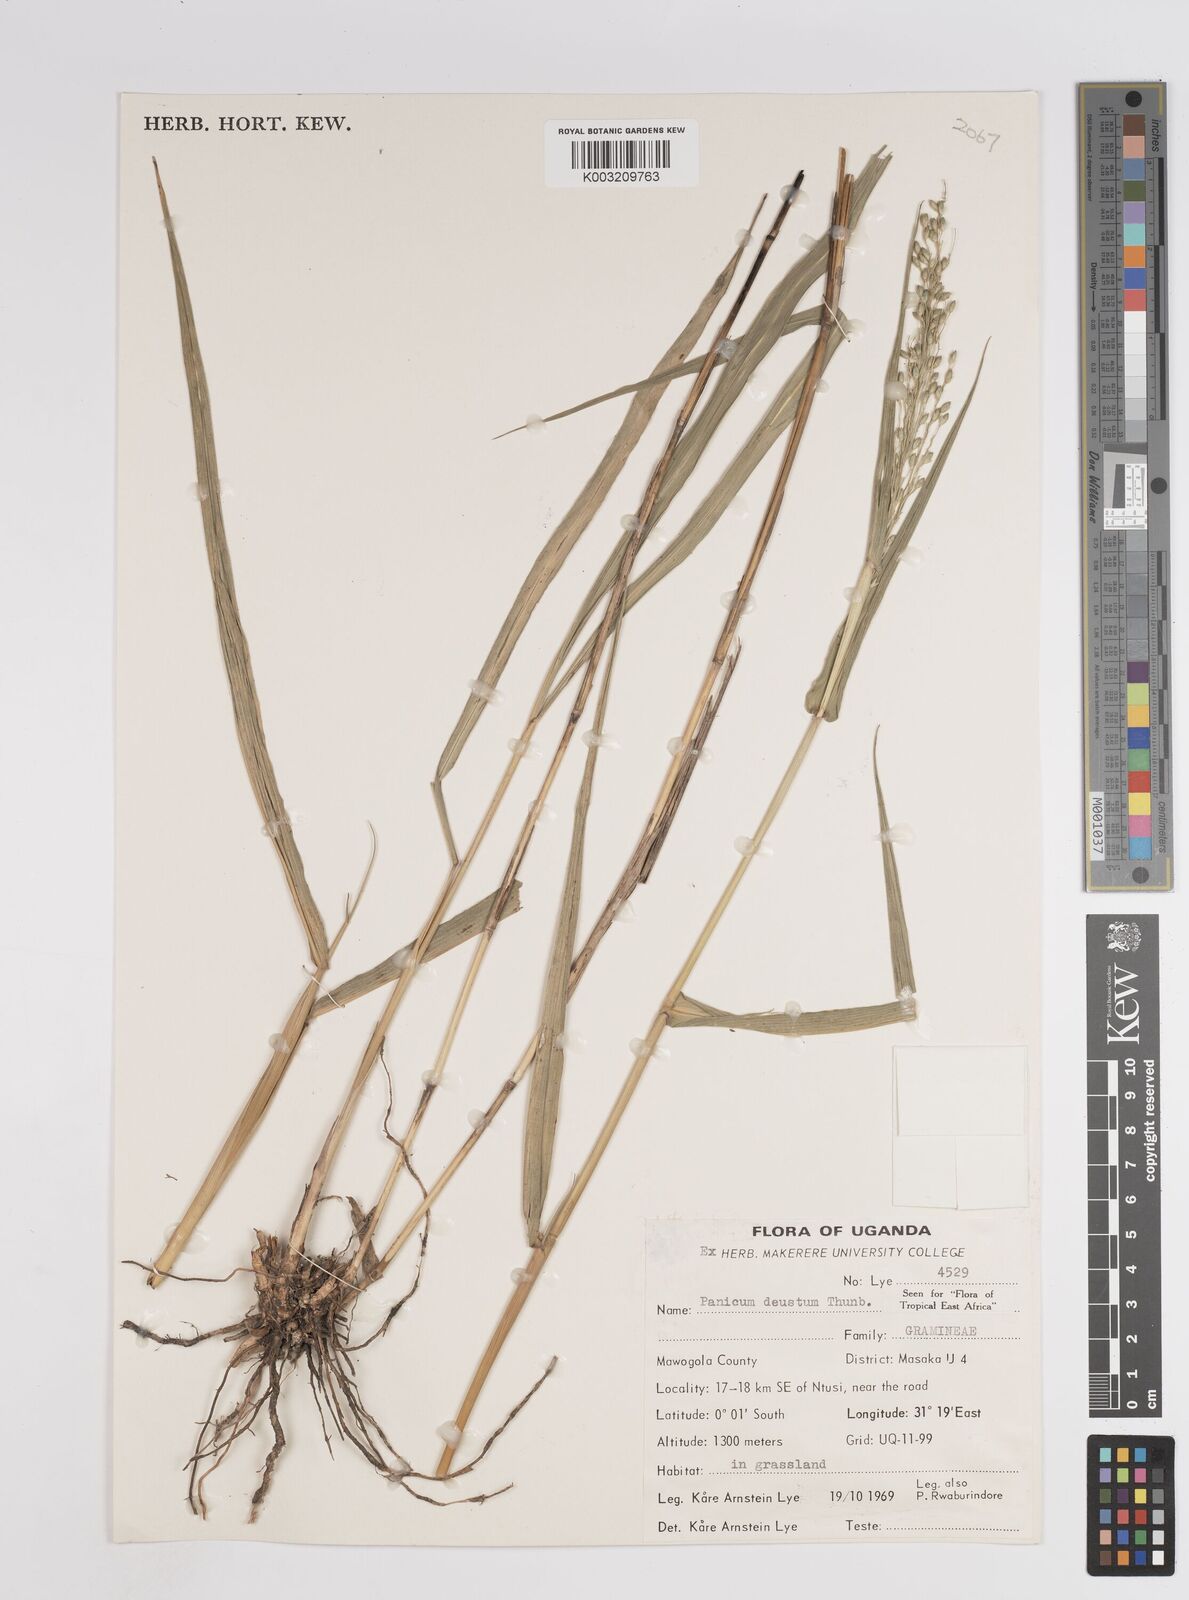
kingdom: Plantae
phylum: Tracheophyta
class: Liliopsida
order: Poales
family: Poaceae
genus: Panicum
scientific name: Panicum deustum
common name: Reed panicum
